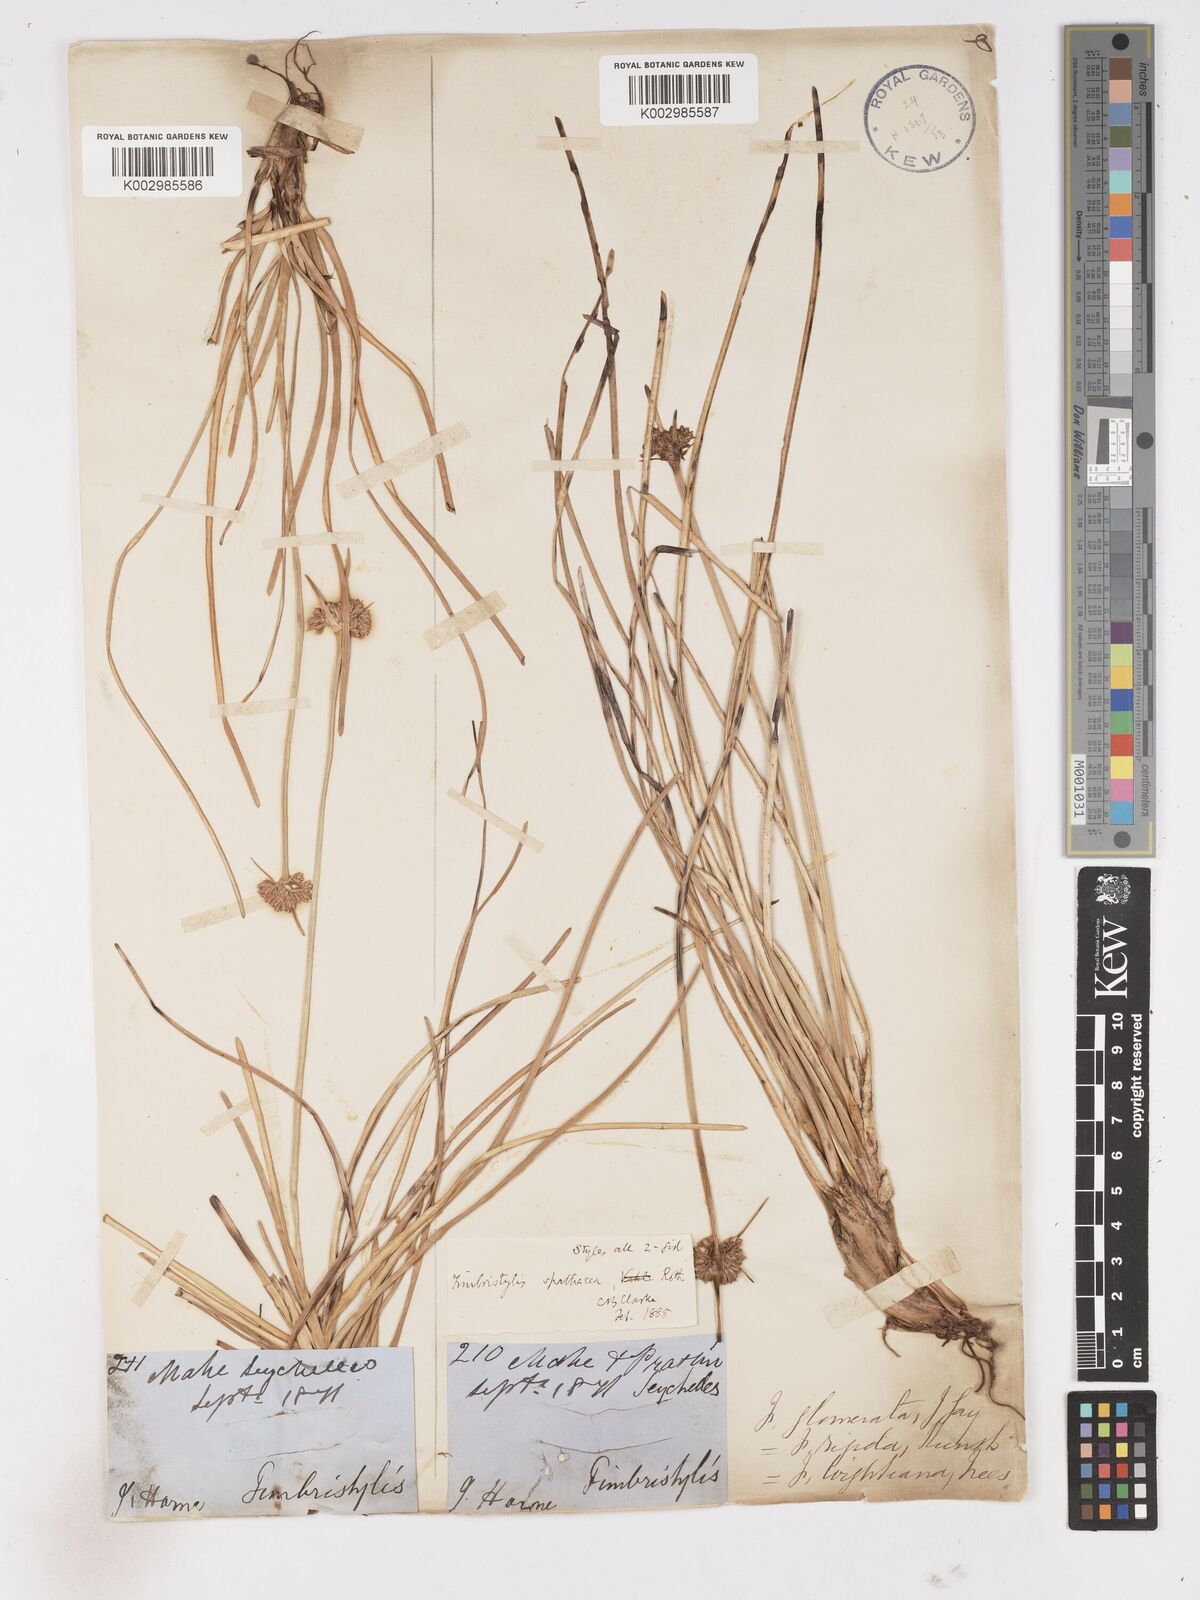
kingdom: Plantae
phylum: Tracheophyta
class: Liliopsida
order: Poales
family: Cyperaceae
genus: Fimbristylis
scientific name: Fimbristylis cymosa
